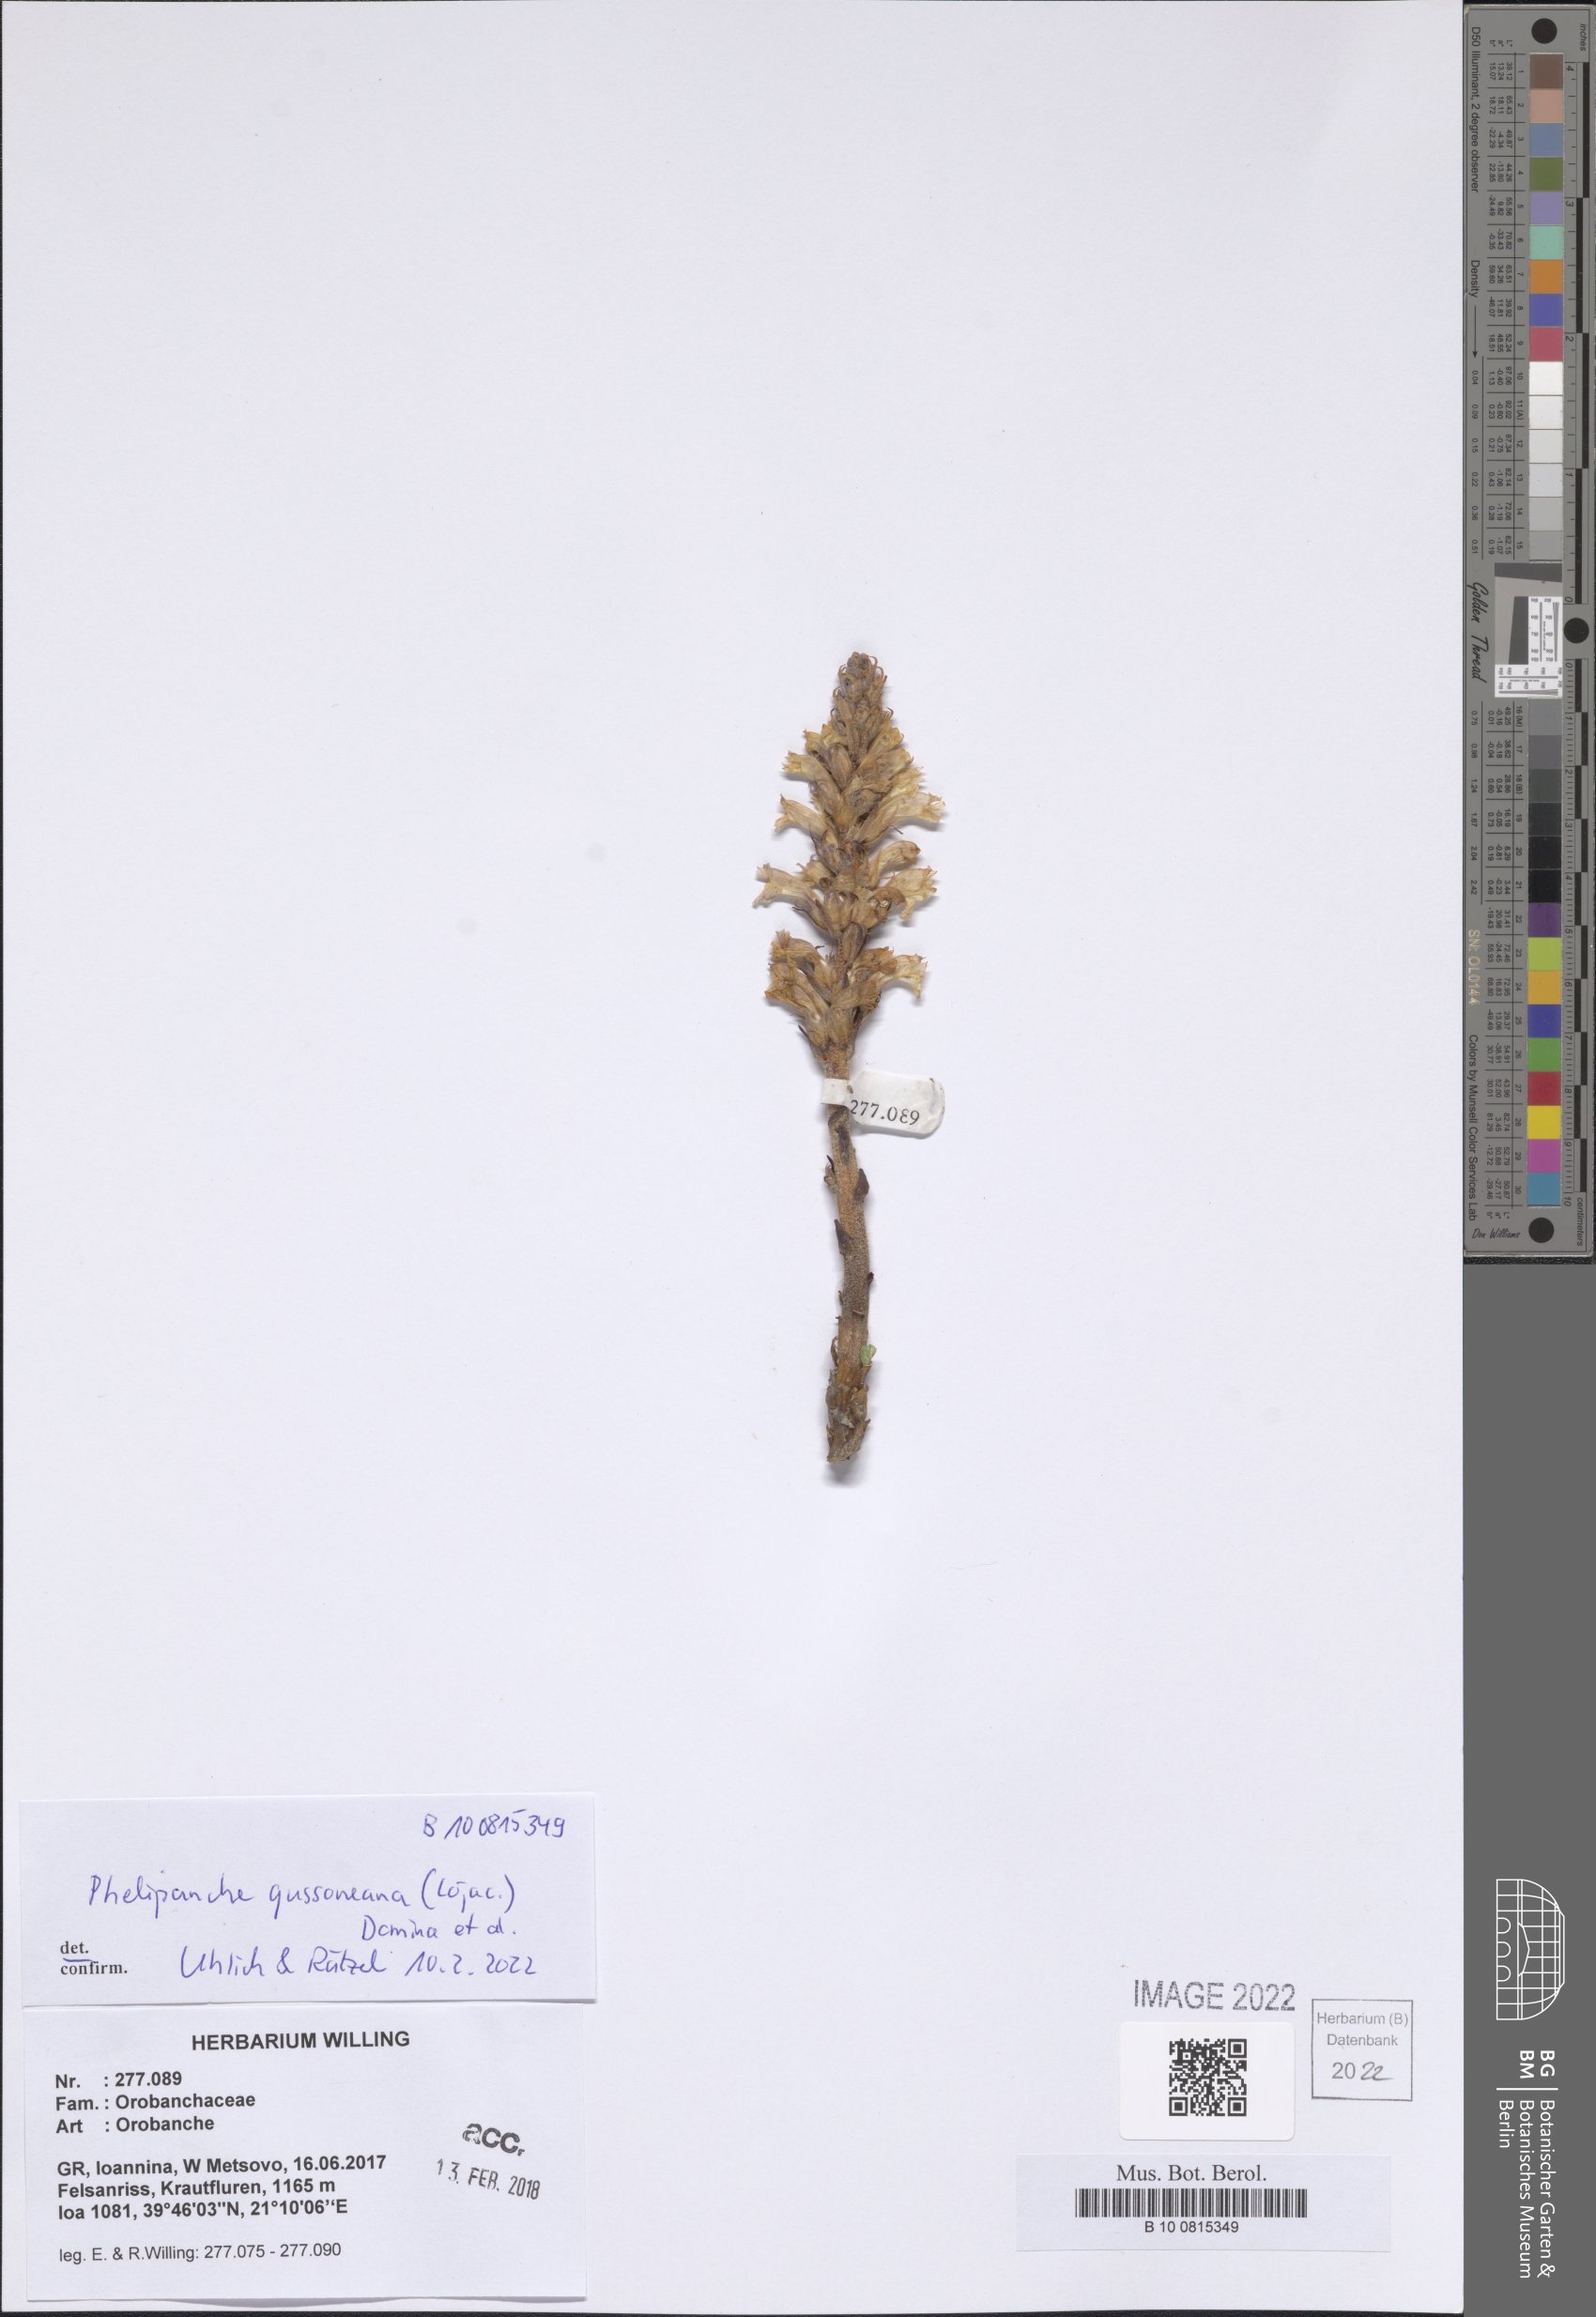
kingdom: Plantae
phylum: Tracheophyta
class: Magnoliopsida
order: Lamiales
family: Orobanchaceae
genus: Phelipanche
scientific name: Phelipanche gussoneana
